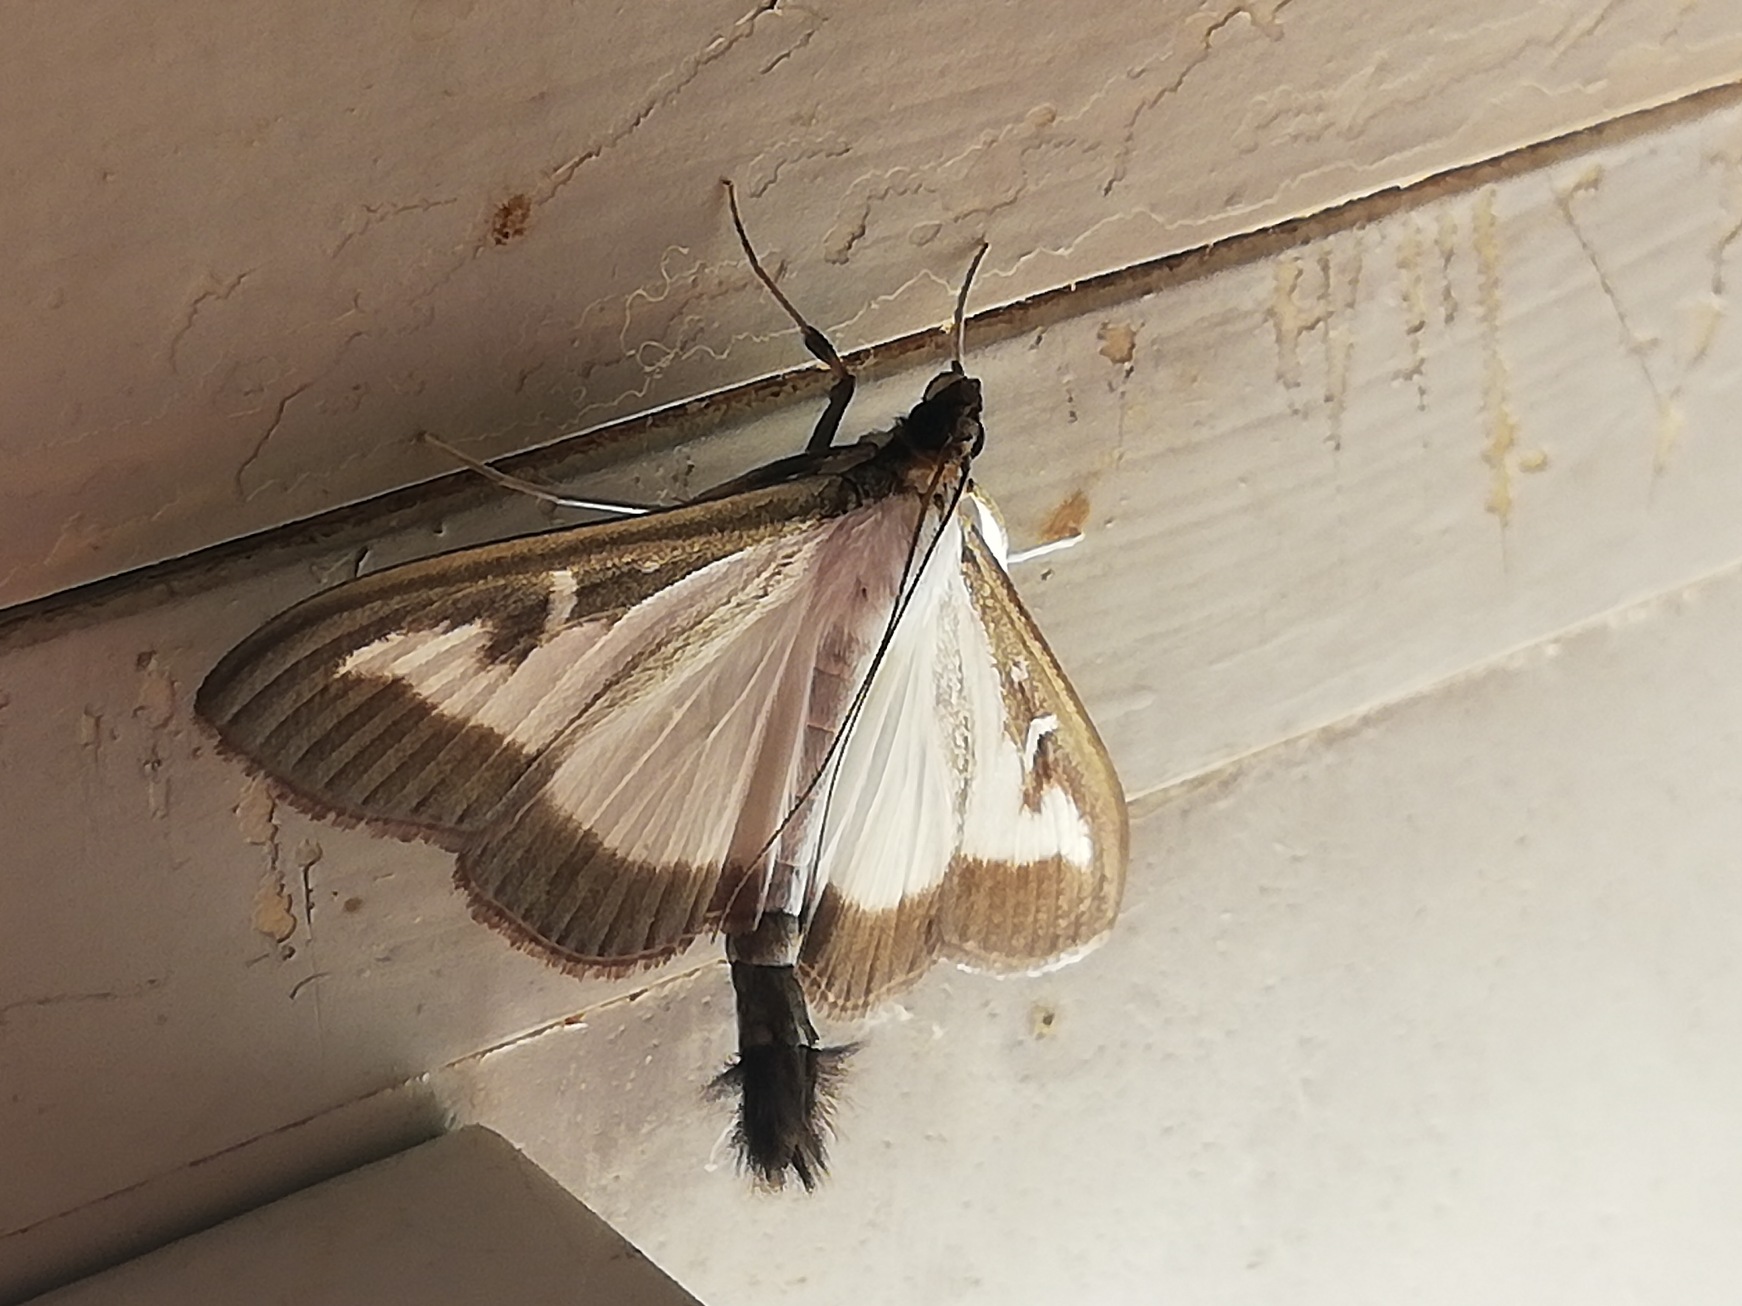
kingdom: Animalia
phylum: Arthropoda
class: Insecta
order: Lepidoptera
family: Crambidae
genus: Cydalima
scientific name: Cydalima perspectalis
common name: Buksbomhalvmøl
